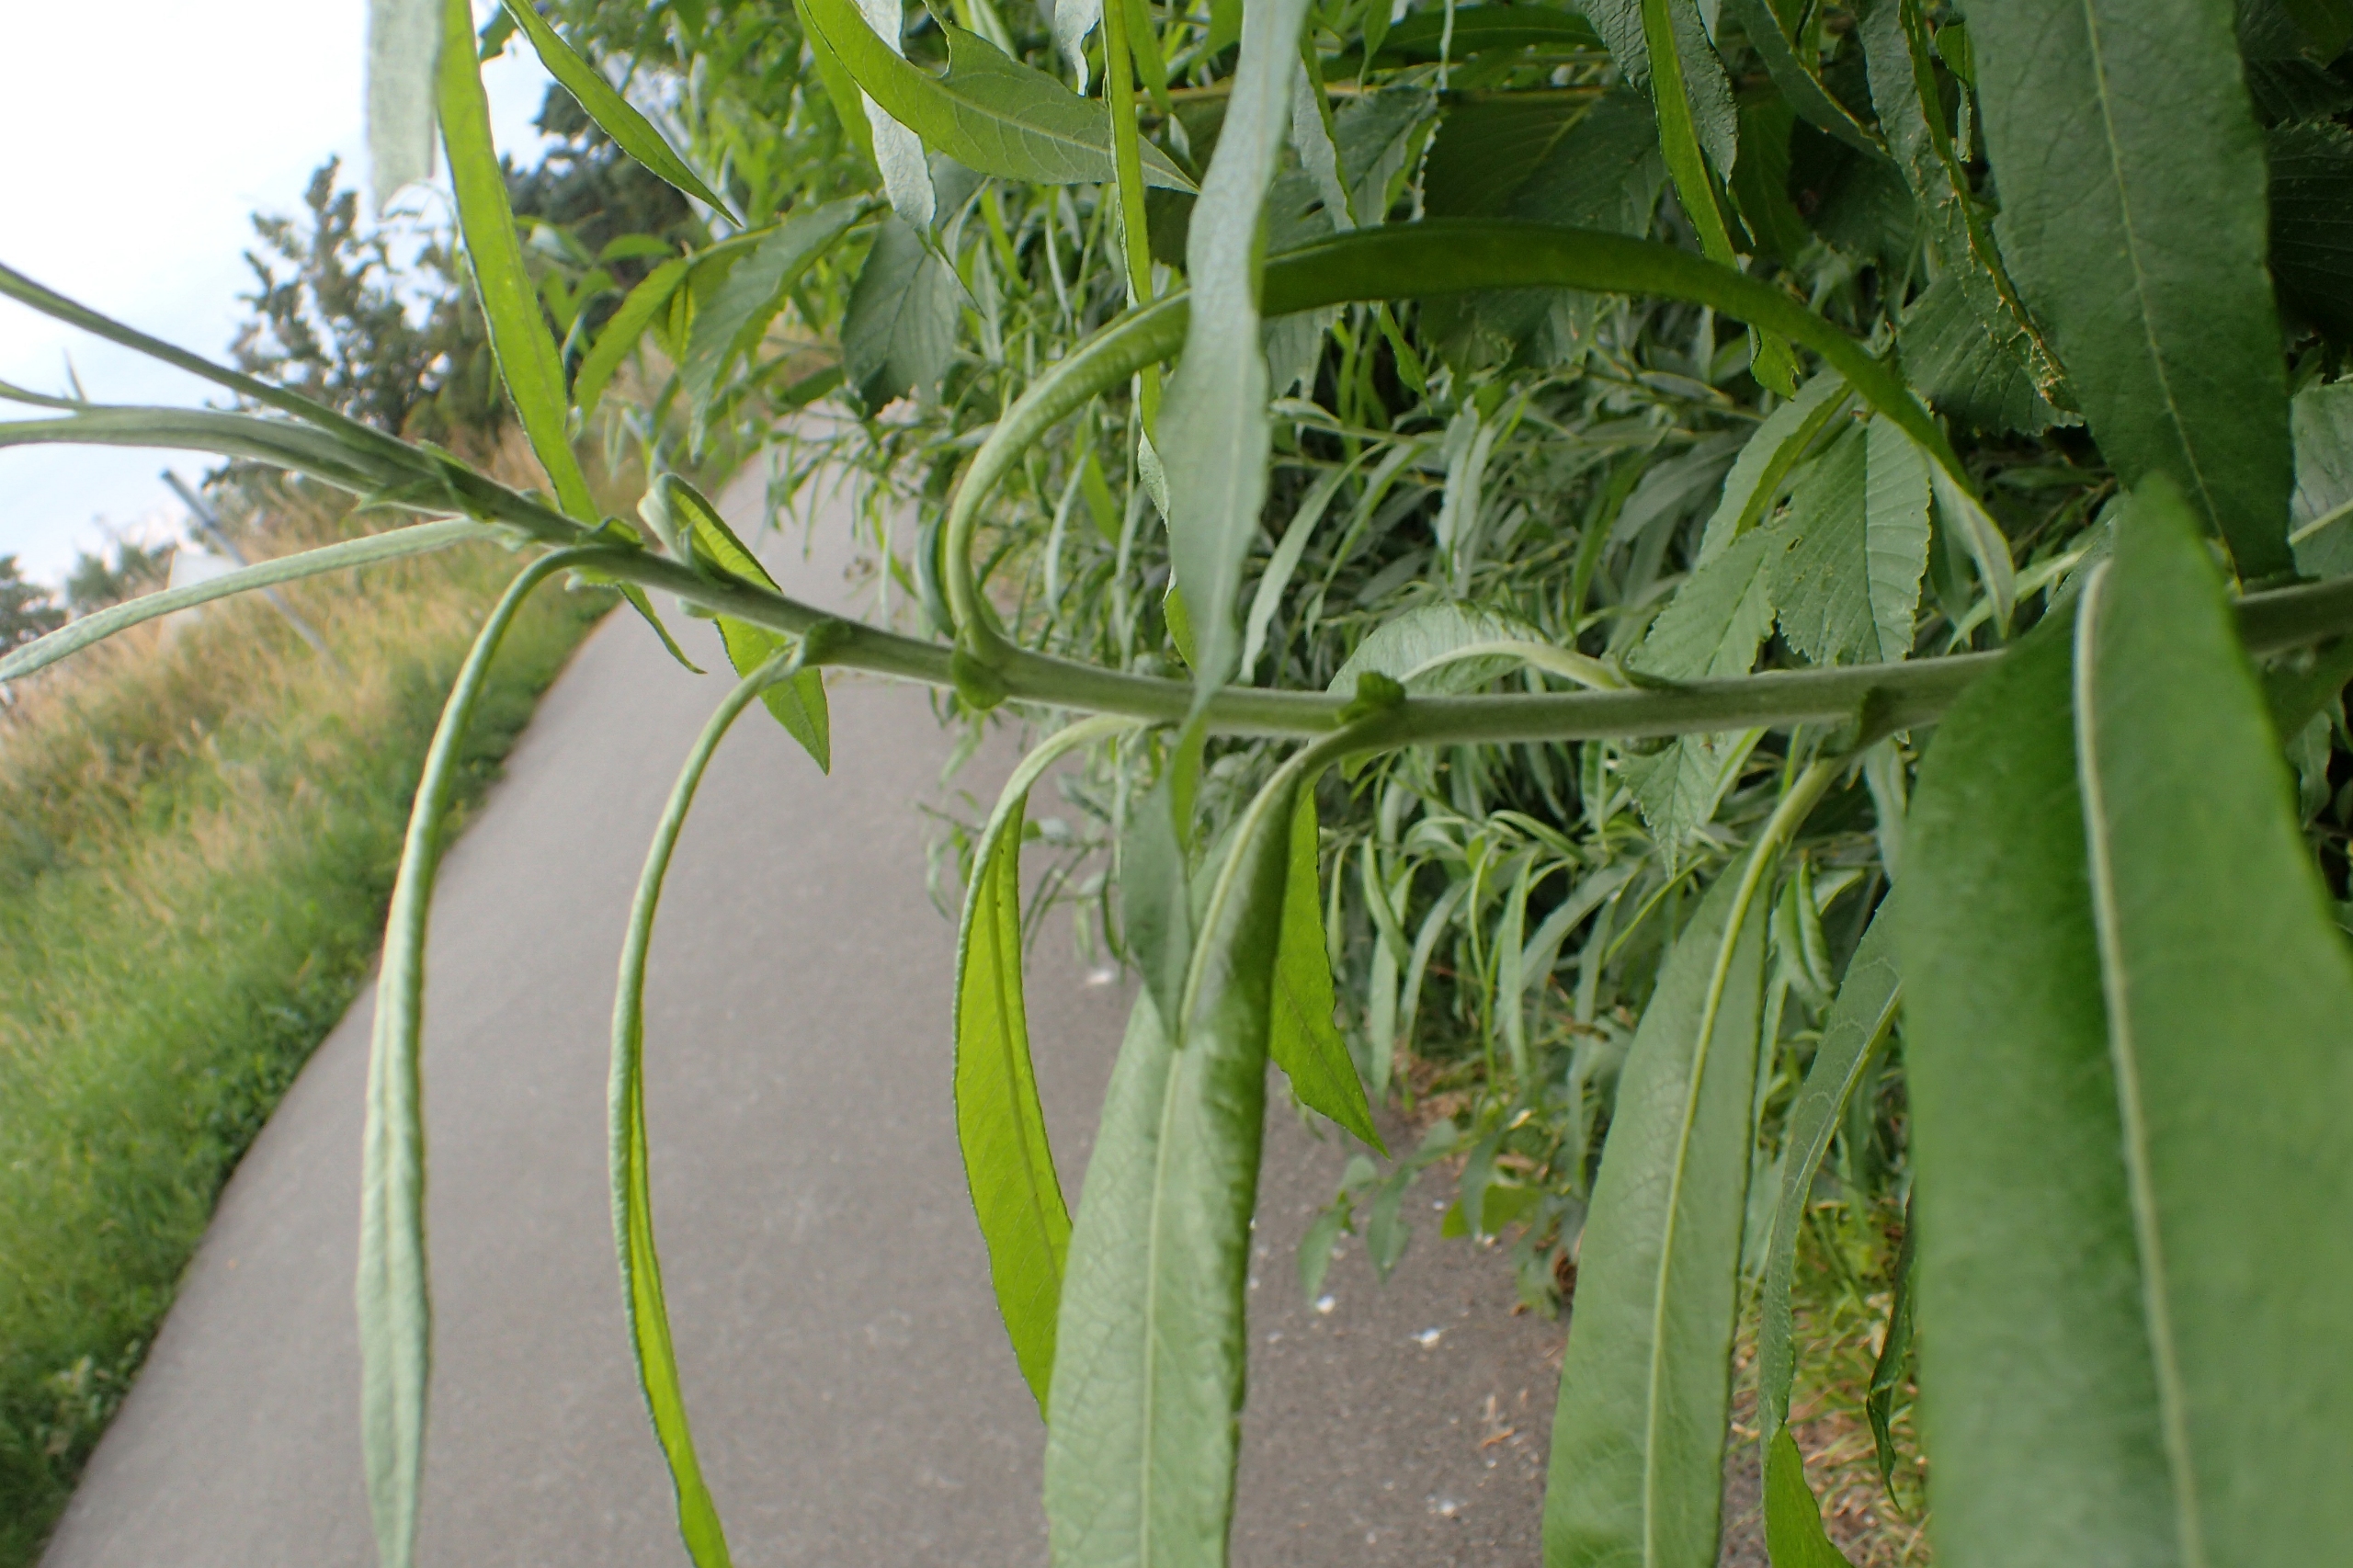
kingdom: Plantae
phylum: Tracheophyta
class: Magnoliopsida
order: Malpighiales
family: Salicaceae
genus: Salix
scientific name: Salix gmelinii
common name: Lådden pil
